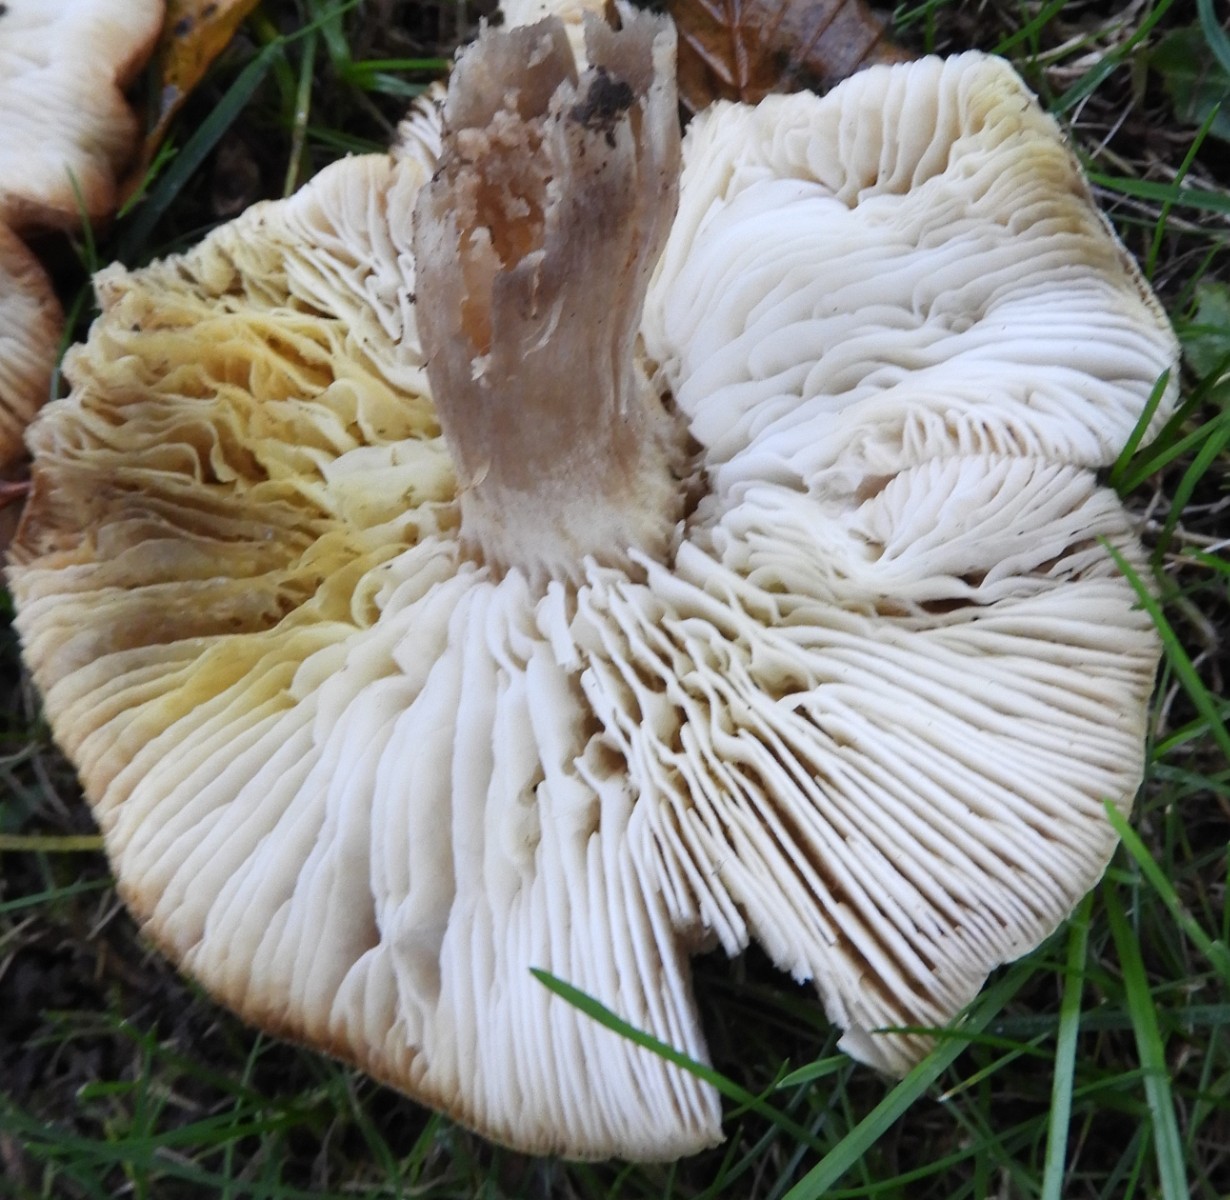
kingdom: Fungi
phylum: Basidiomycota
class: Agaricomycetes
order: Agaricales
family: Tricholomataceae
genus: Tricholoma
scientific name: Tricholoma scalpturatum
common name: gulplettet ridderhat
